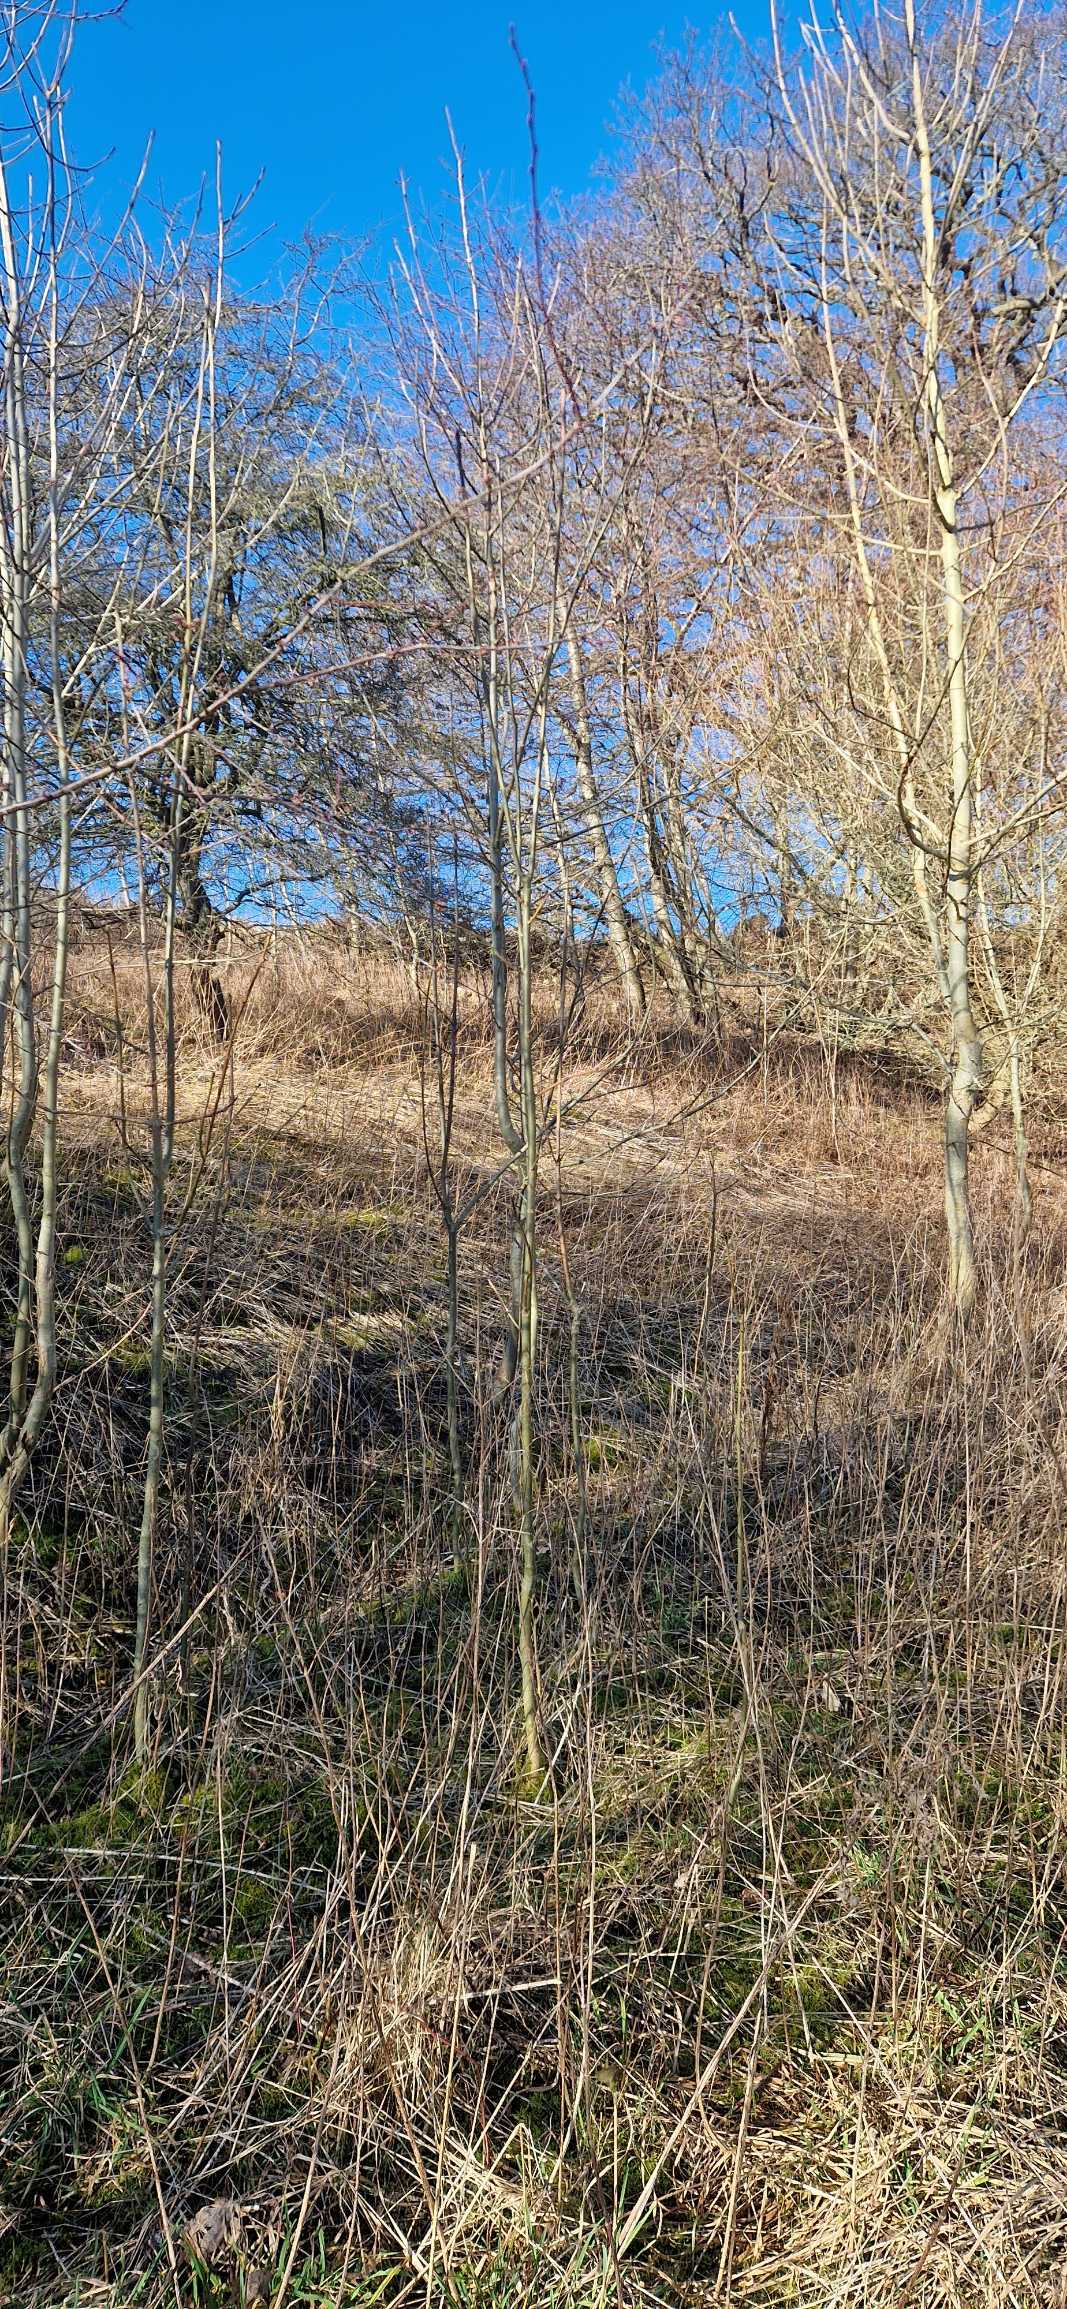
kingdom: Plantae
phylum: Tracheophyta
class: Magnoliopsida
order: Lamiales
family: Oleaceae
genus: Fraxinus
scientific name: Fraxinus excelsior
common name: Ask
